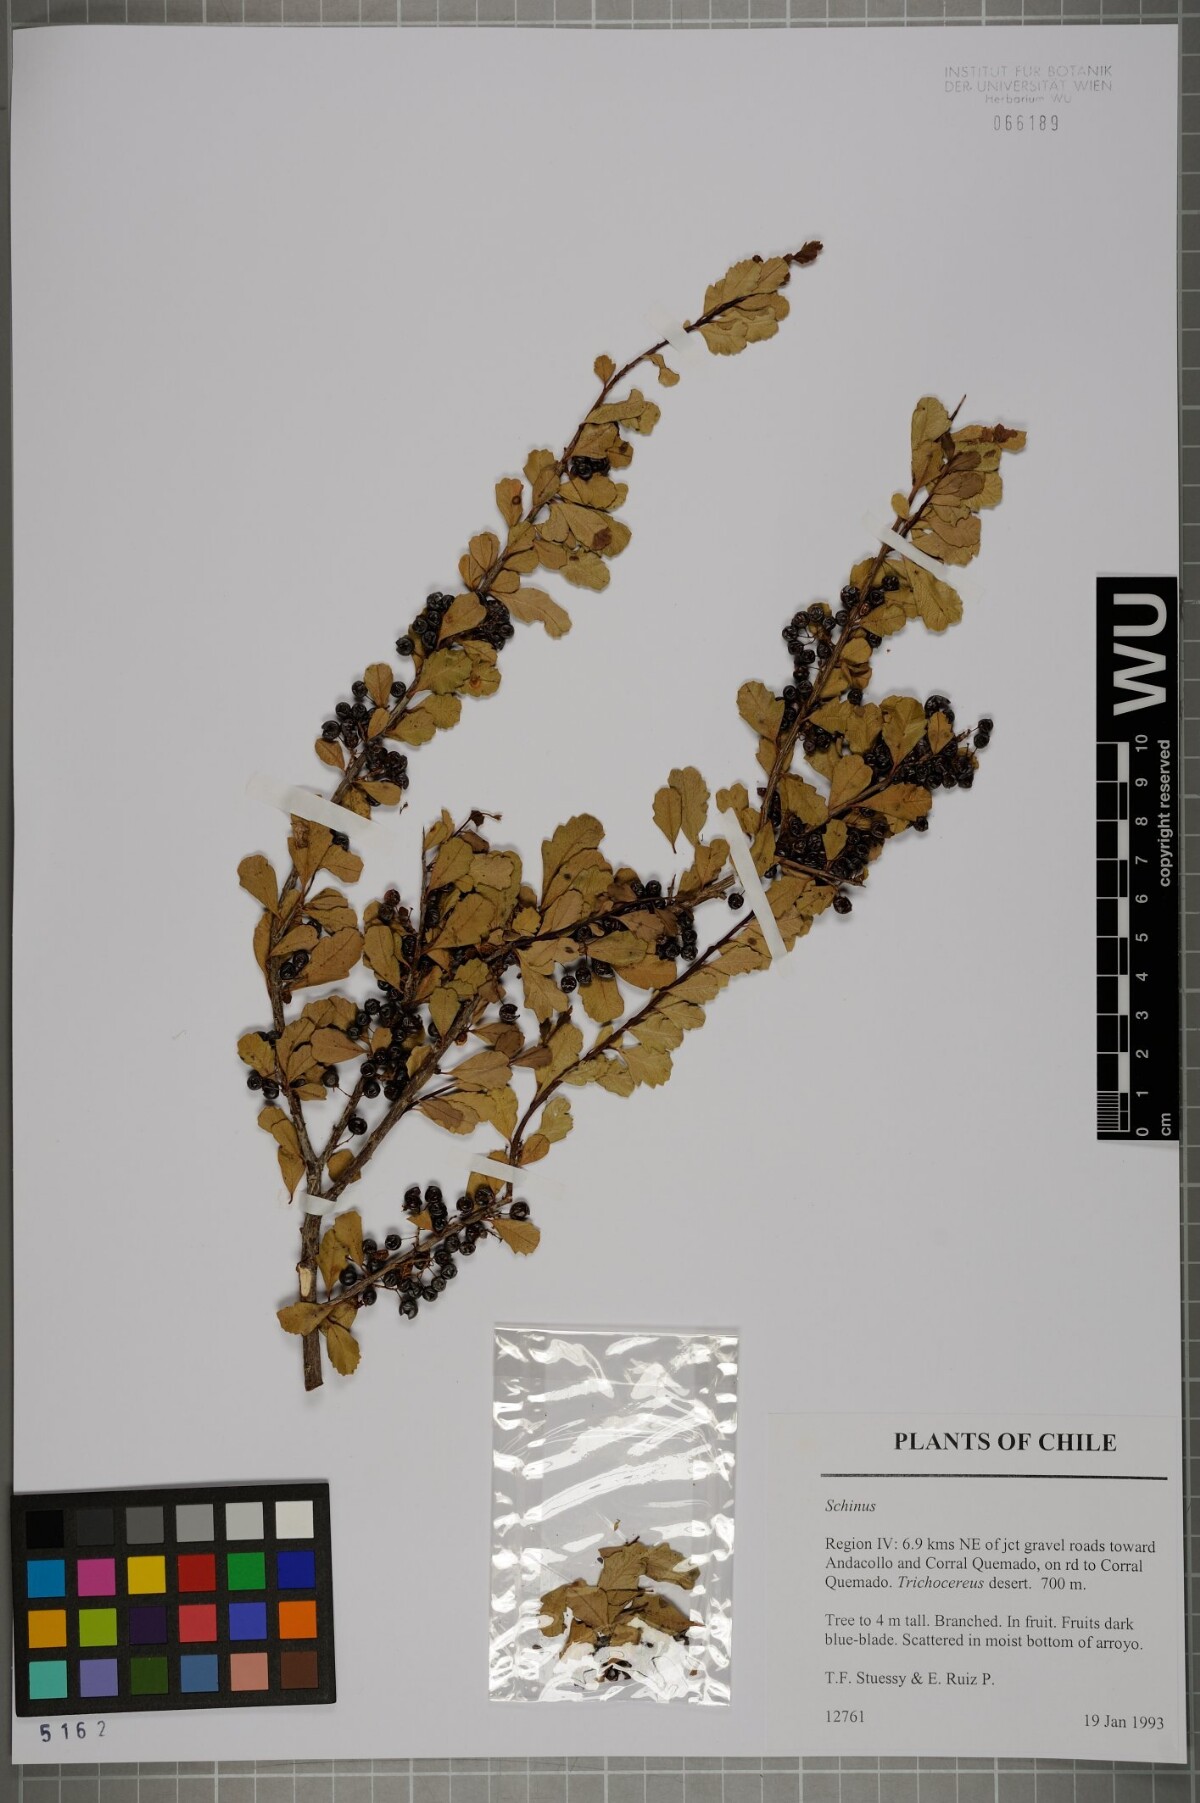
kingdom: Plantae
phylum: Tracheophyta
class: Magnoliopsida
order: Sapindales
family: Anacardiaceae
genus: Schinus
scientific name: Schinus
